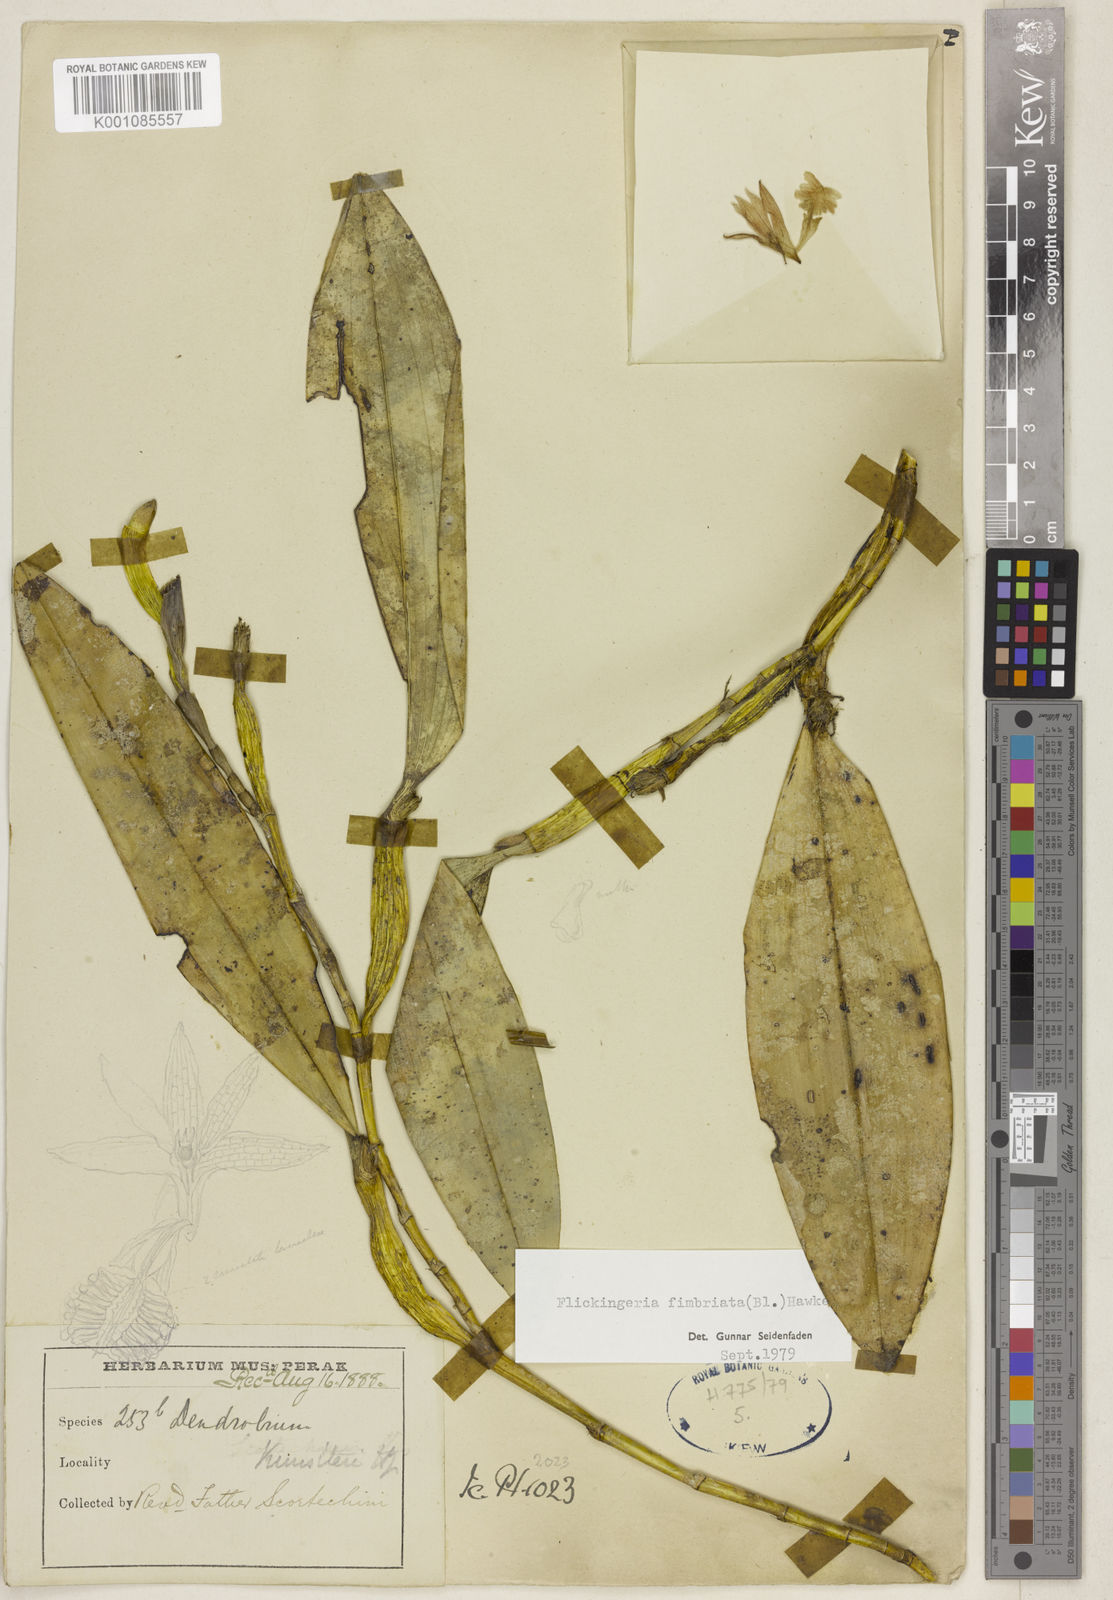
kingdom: Plantae
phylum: Tracheophyta
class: Liliopsida
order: Asparagales
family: Orchidaceae
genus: Dendrobium
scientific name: Dendrobium plicatile
